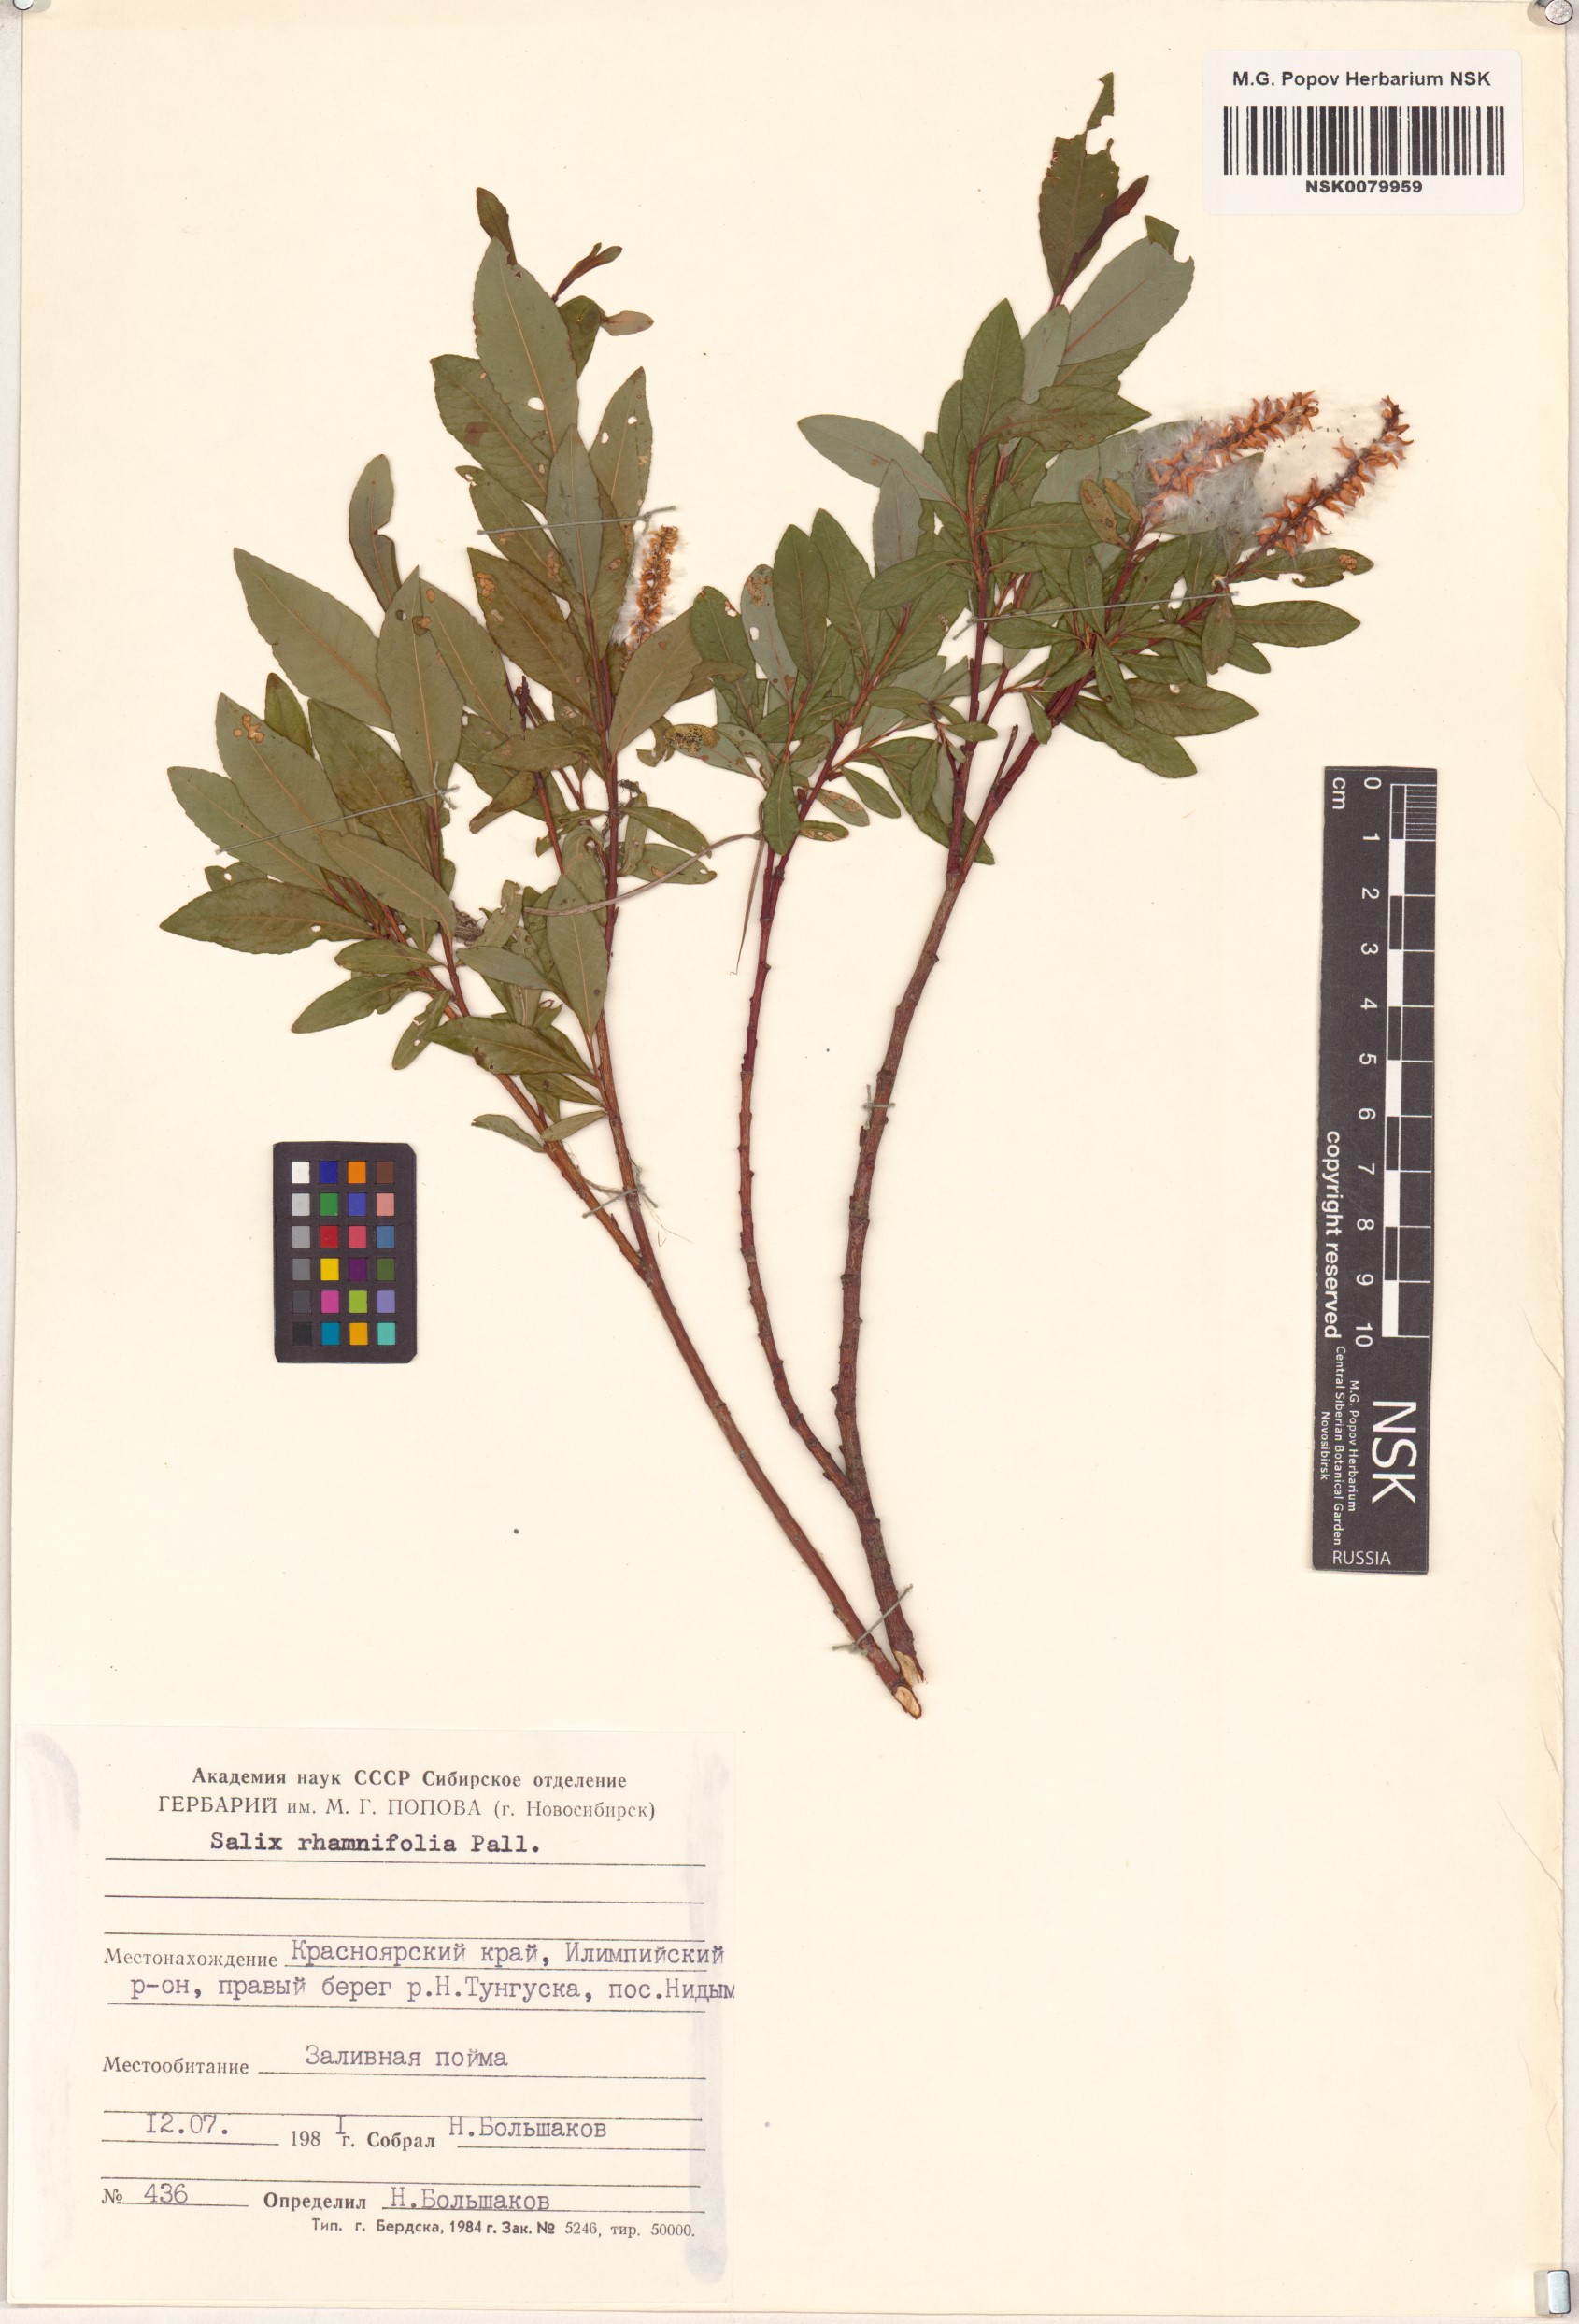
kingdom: Plantae
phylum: Tracheophyta
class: Magnoliopsida
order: Malpighiales
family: Salicaceae
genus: Salix
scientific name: Salix rhamnifolia
